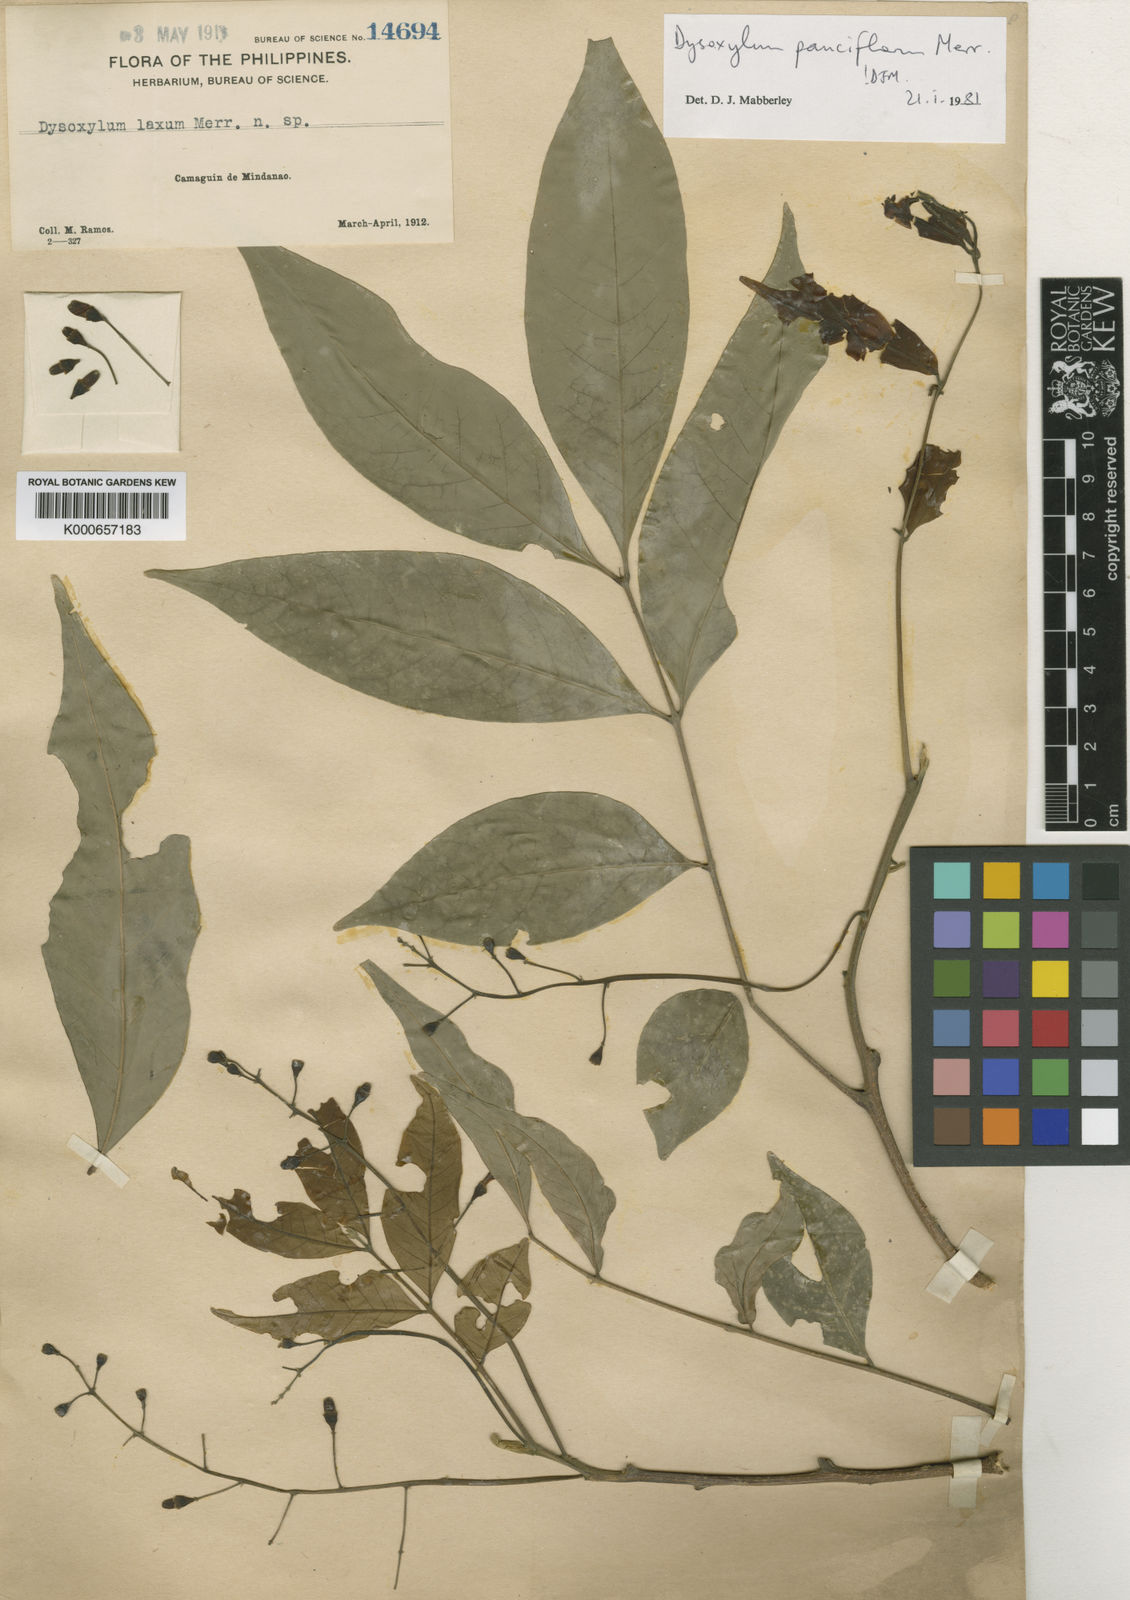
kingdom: Plantae
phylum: Tracheophyta
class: Magnoliopsida
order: Sapindales
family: Meliaceae
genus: Didymocheton
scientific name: Didymocheton pauciflorus
